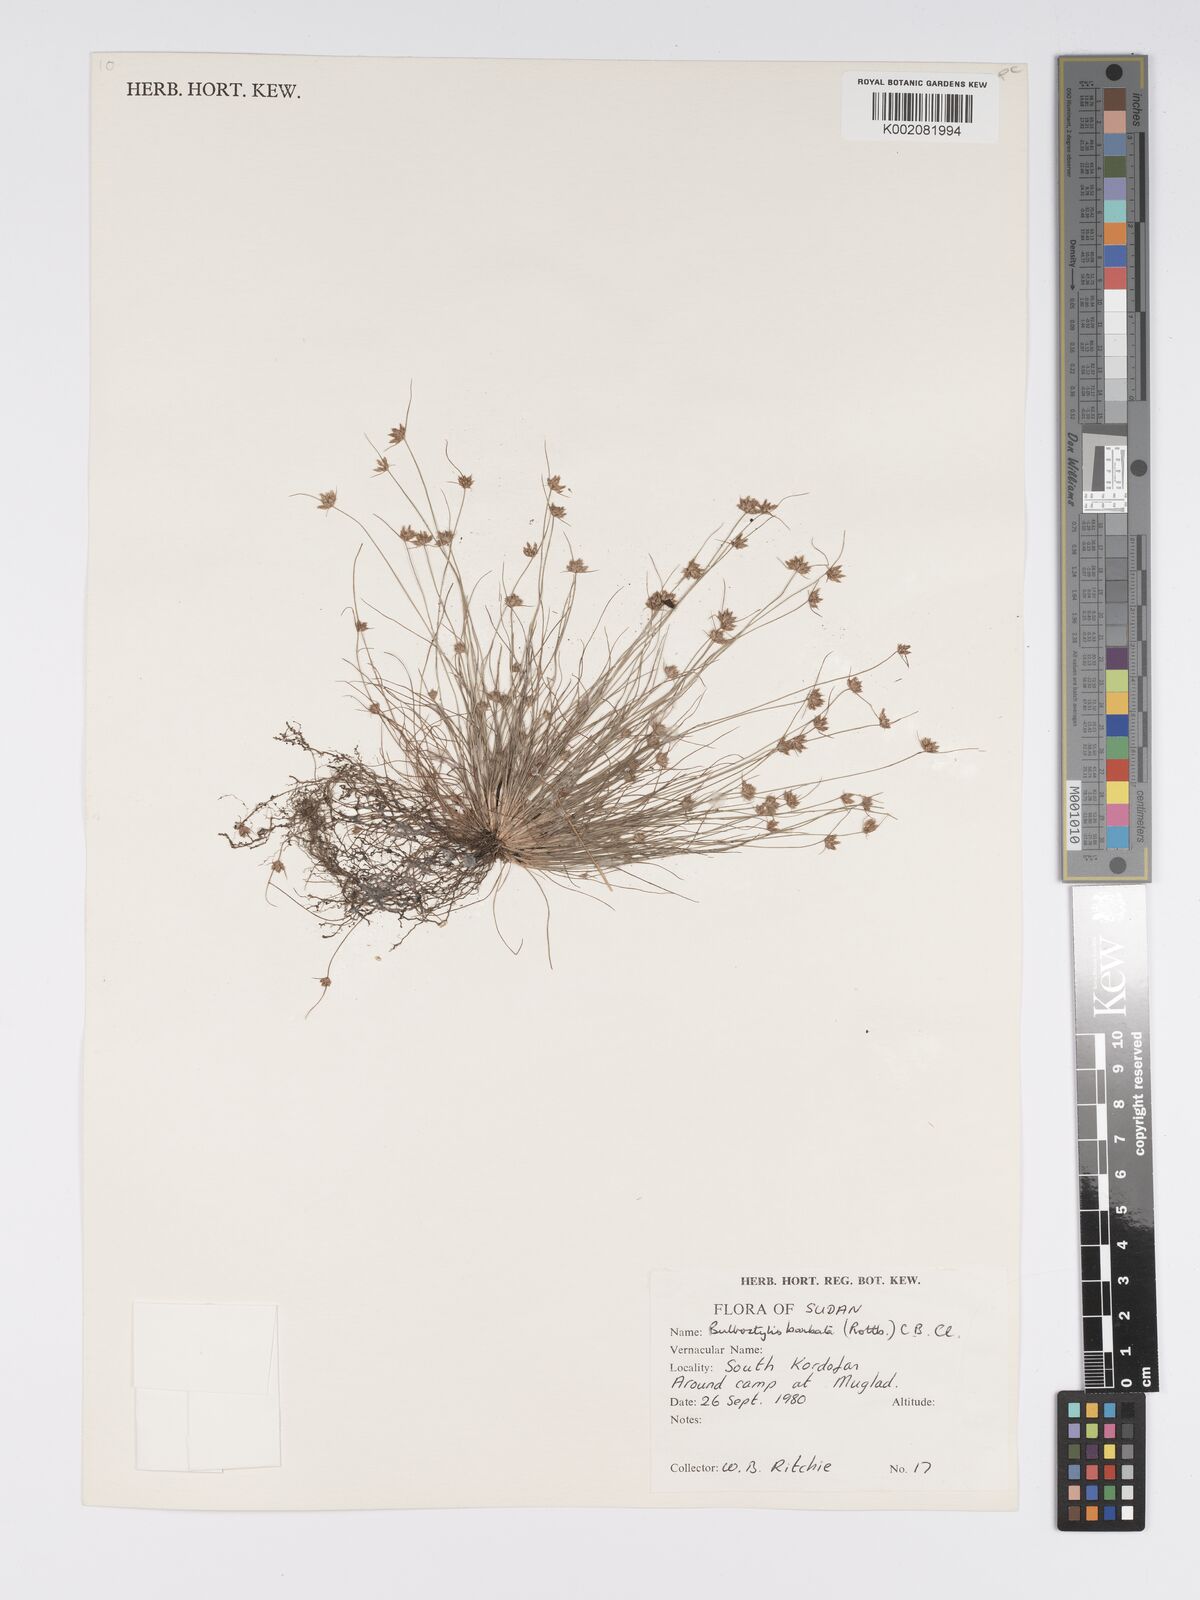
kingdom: Plantae
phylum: Tracheophyta
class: Liliopsida
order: Poales
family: Cyperaceae
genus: Bulbostylis
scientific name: Bulbostylis barbata
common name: Watergrass
